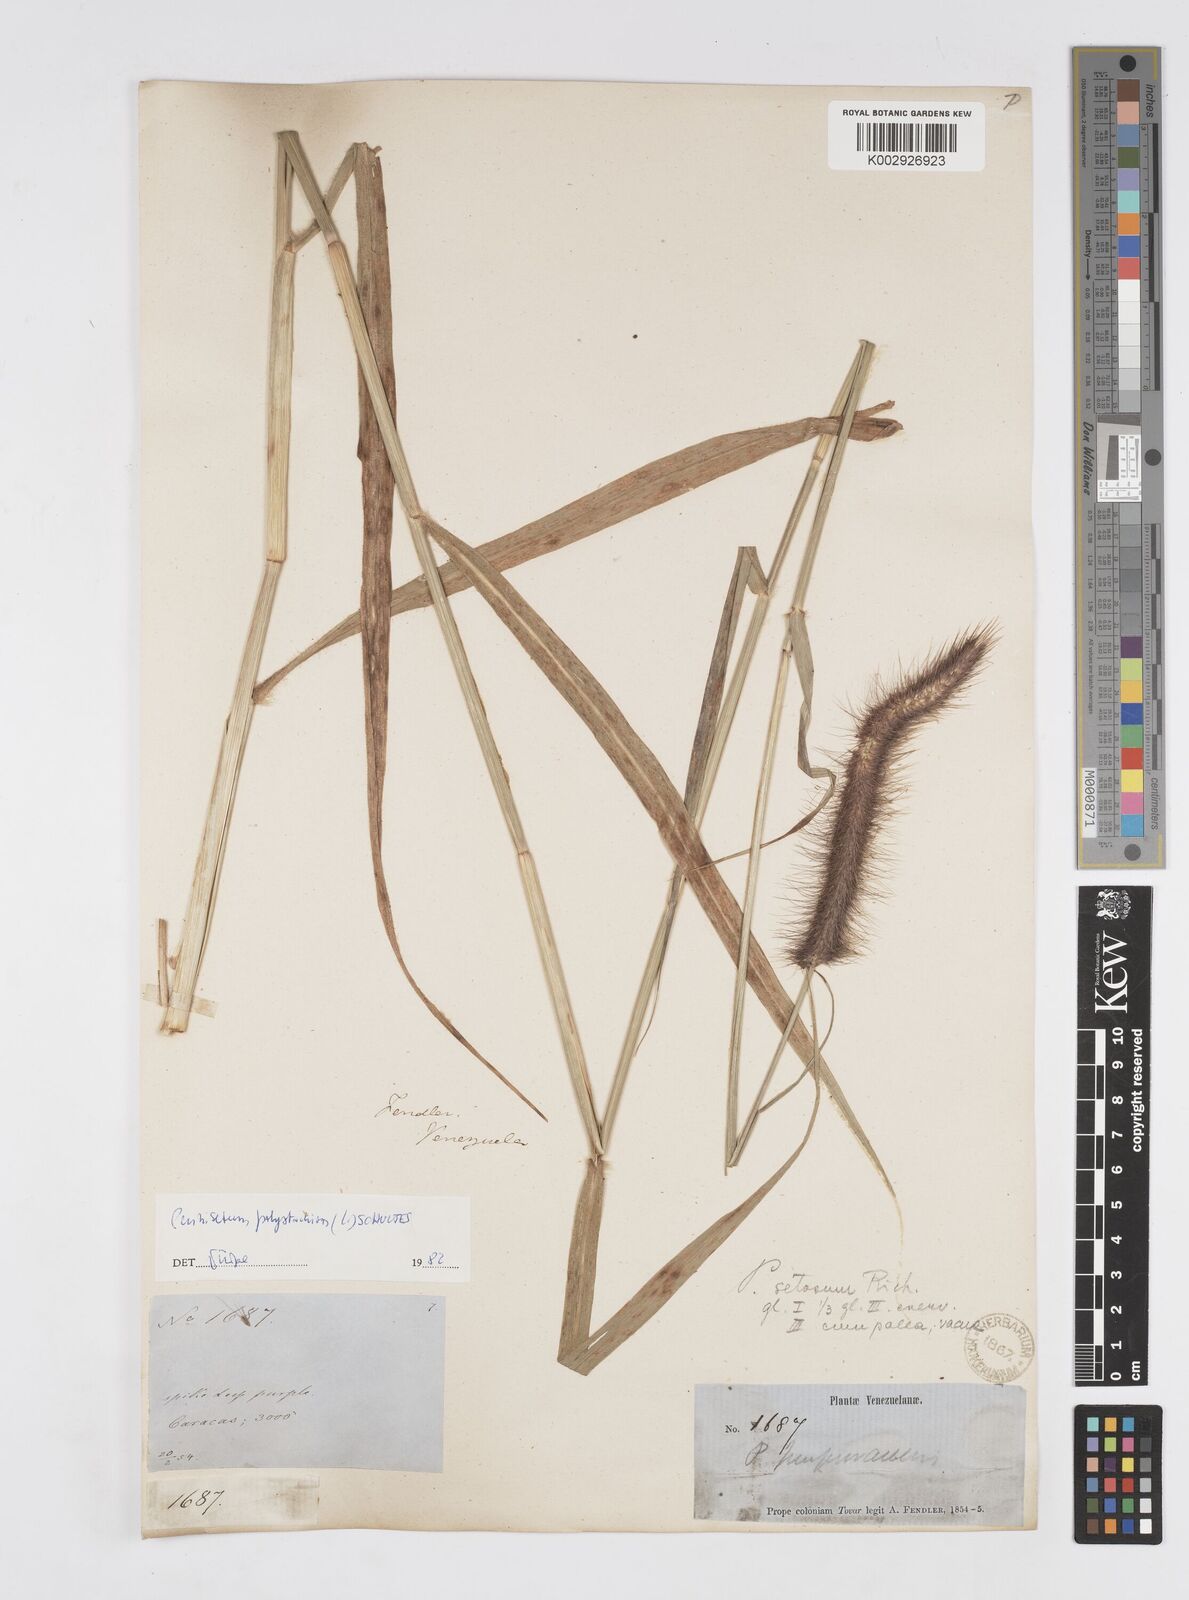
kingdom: Plantae
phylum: Tracheophyta
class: Liliopsida
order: Poales
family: Poaceae
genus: Setaria
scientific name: Setaria parviflora
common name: Knotroot bristle-grass
